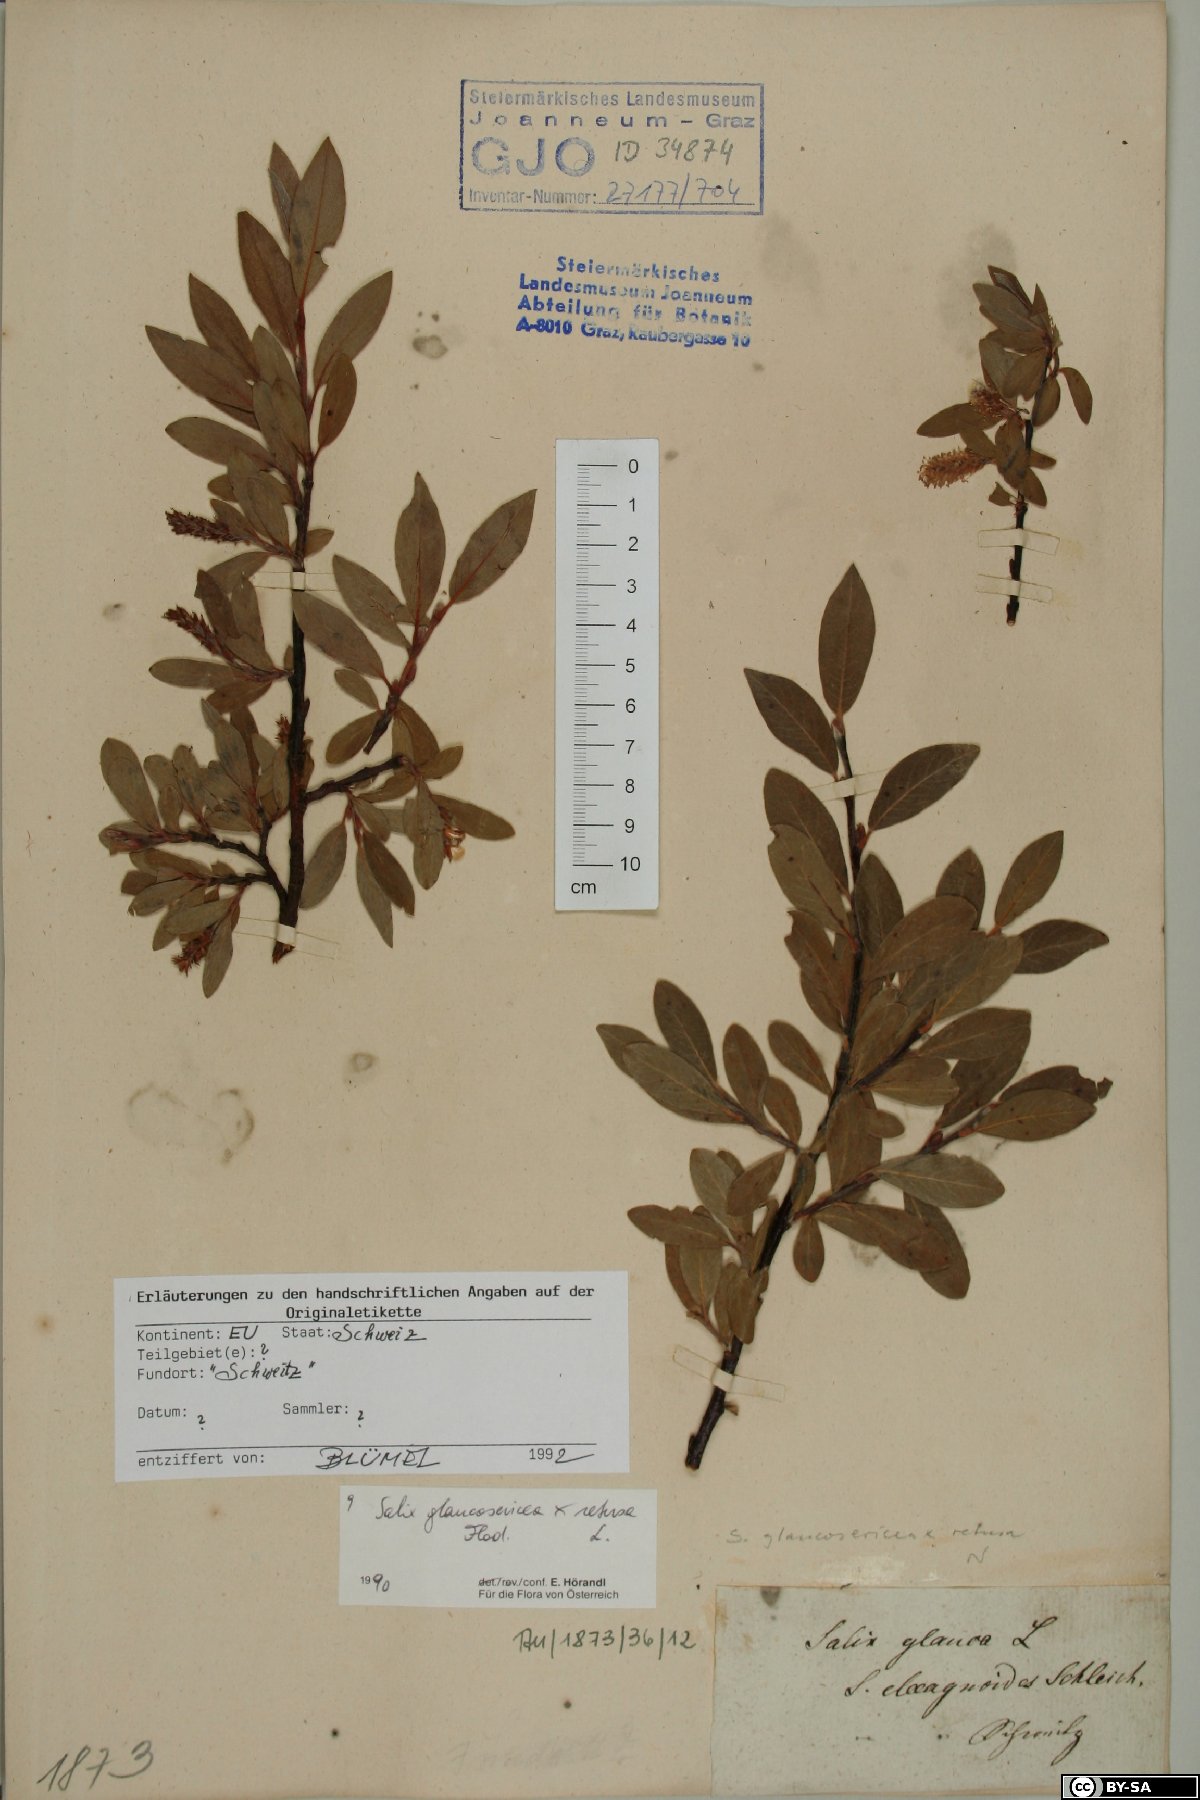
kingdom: Plantae
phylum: Tracheophyta
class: Magnoliopsida
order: Malpighiales
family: Salicaceae
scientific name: Salicaceae
